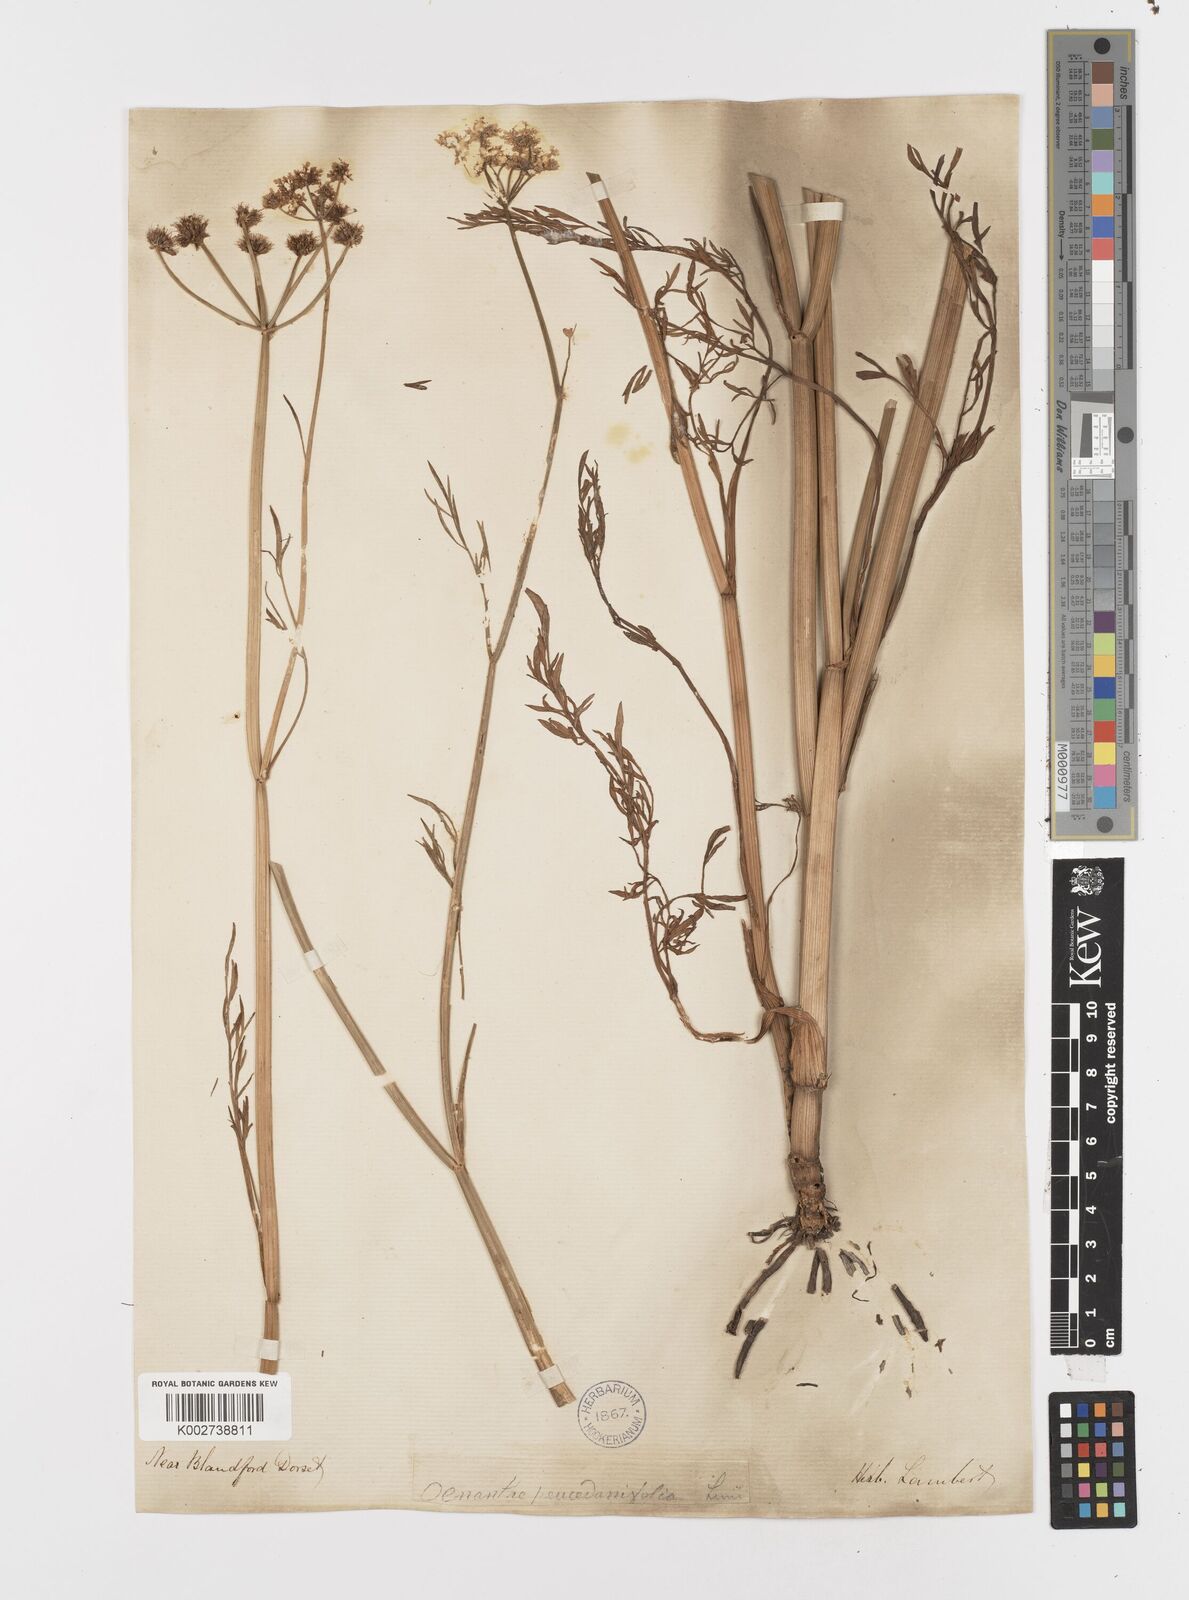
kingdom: Plantae
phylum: Tracheophyta
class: Magnoliopsida
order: Apiales
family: Apiaceae
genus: Oenanthe
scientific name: Oenanthe silaifolia
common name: Narrow-leaved water-dropwort
